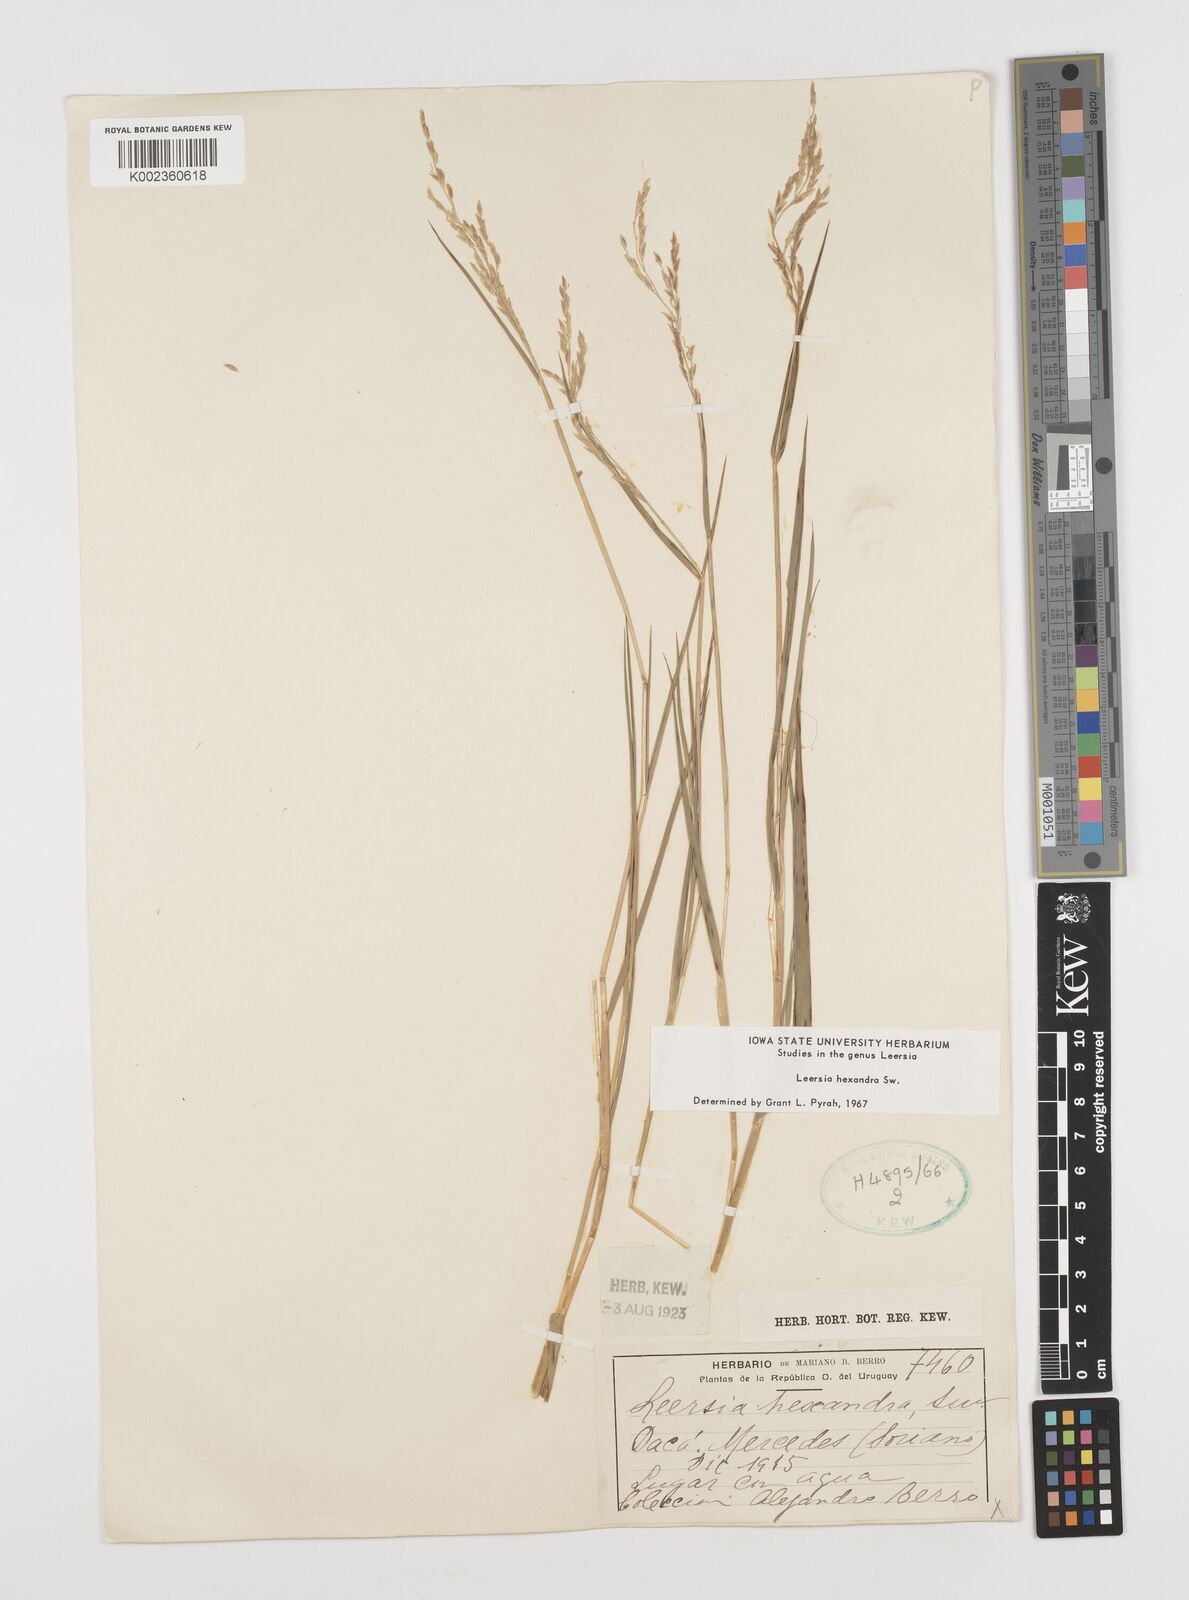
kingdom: Plantae
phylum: Tracheophyta
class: Liliopsida
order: Poales
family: Poaceae
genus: Leersia
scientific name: Leersia hexandra
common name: Southern cut grass
